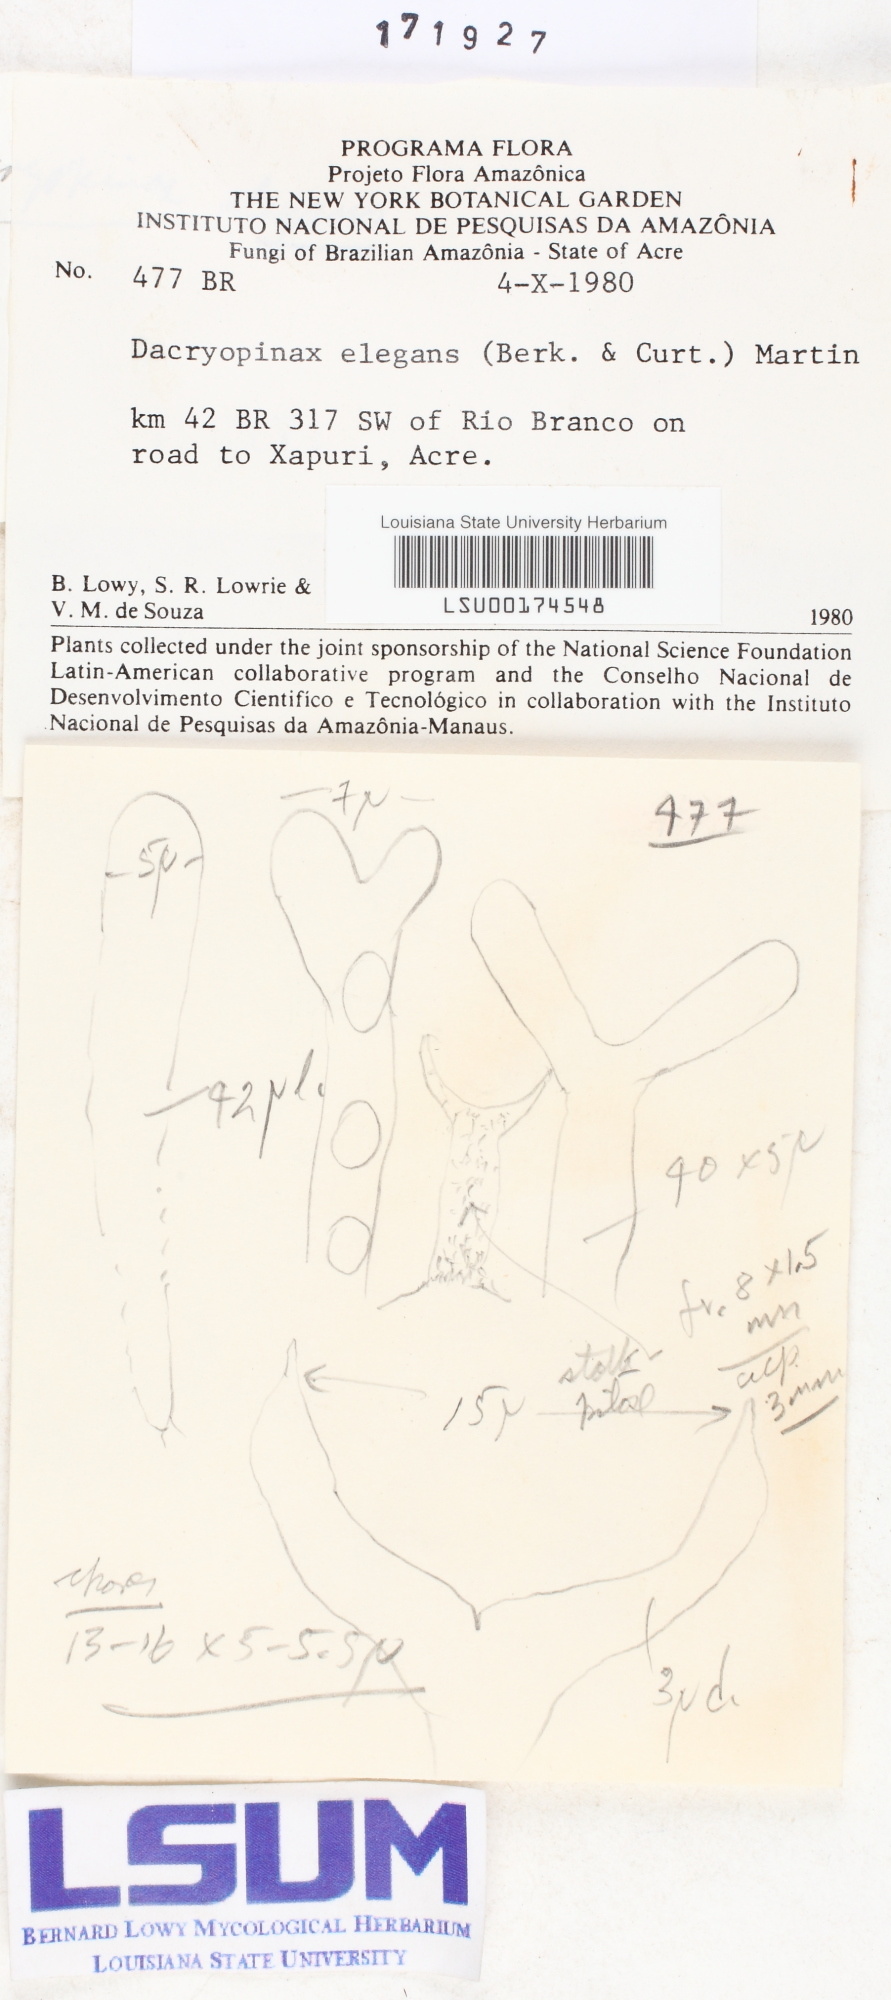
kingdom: Fungi
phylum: Basidiomycota
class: Dacrymycetes
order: Dacrymycetales
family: Dacrymycetaceae
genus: Dacryopinax
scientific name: Dacryopinax elegans
